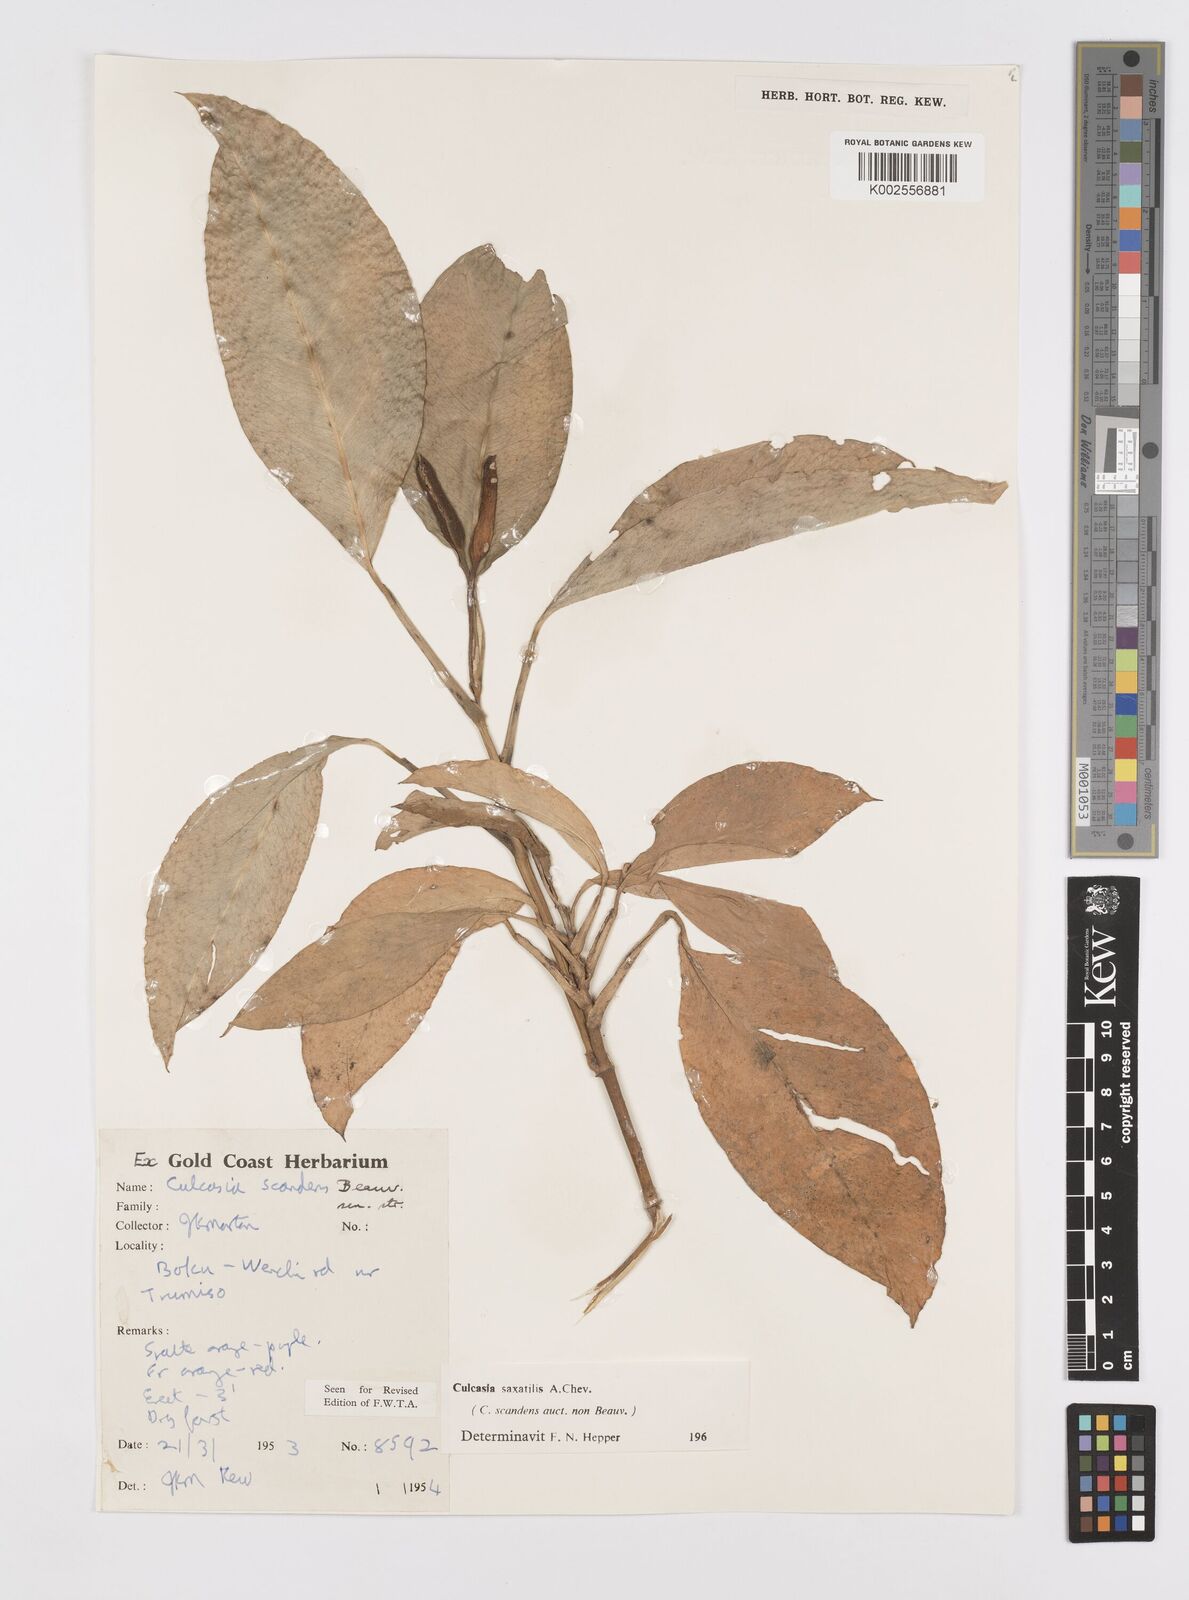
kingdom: Plantae
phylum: Tracheophyta
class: Liliopsida
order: Alismatales
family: Araceae
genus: Culcasia
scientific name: Culcasia scandens
